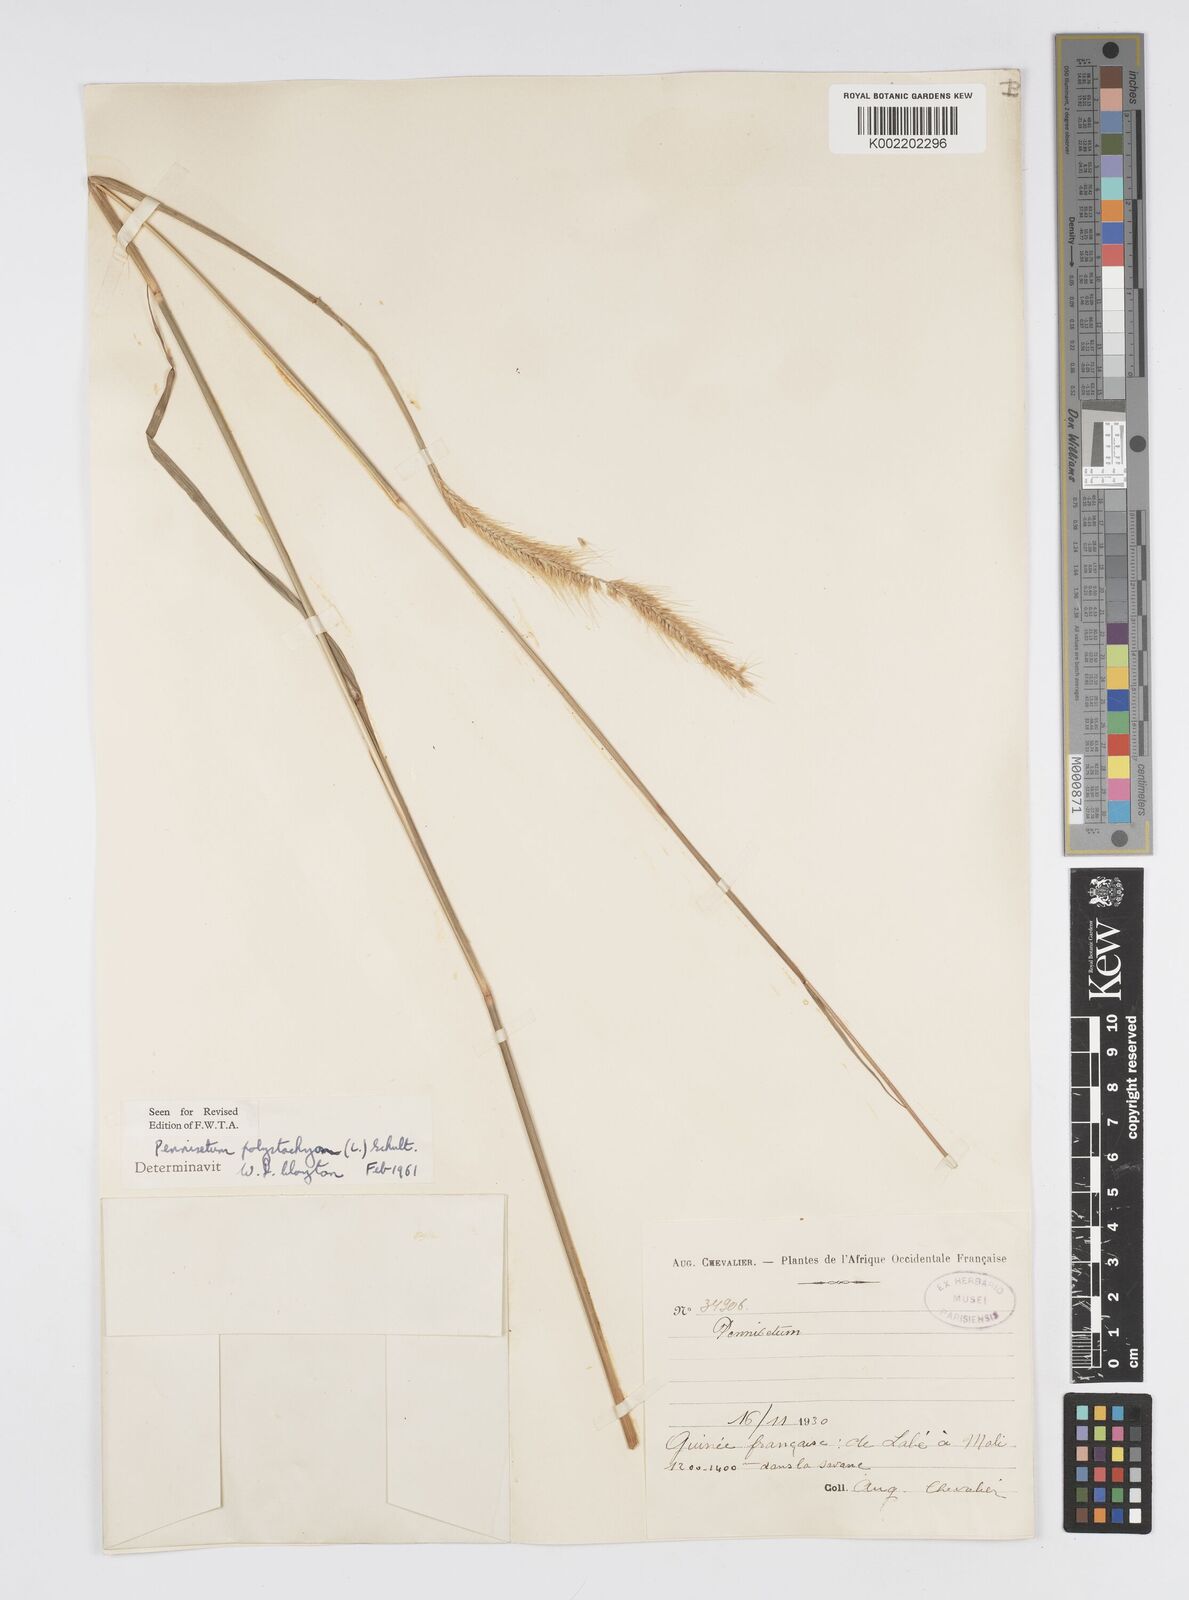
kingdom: Plantae
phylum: Tracheophyta
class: Liliopsida
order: Poales
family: Poaceae
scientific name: Poaceae
